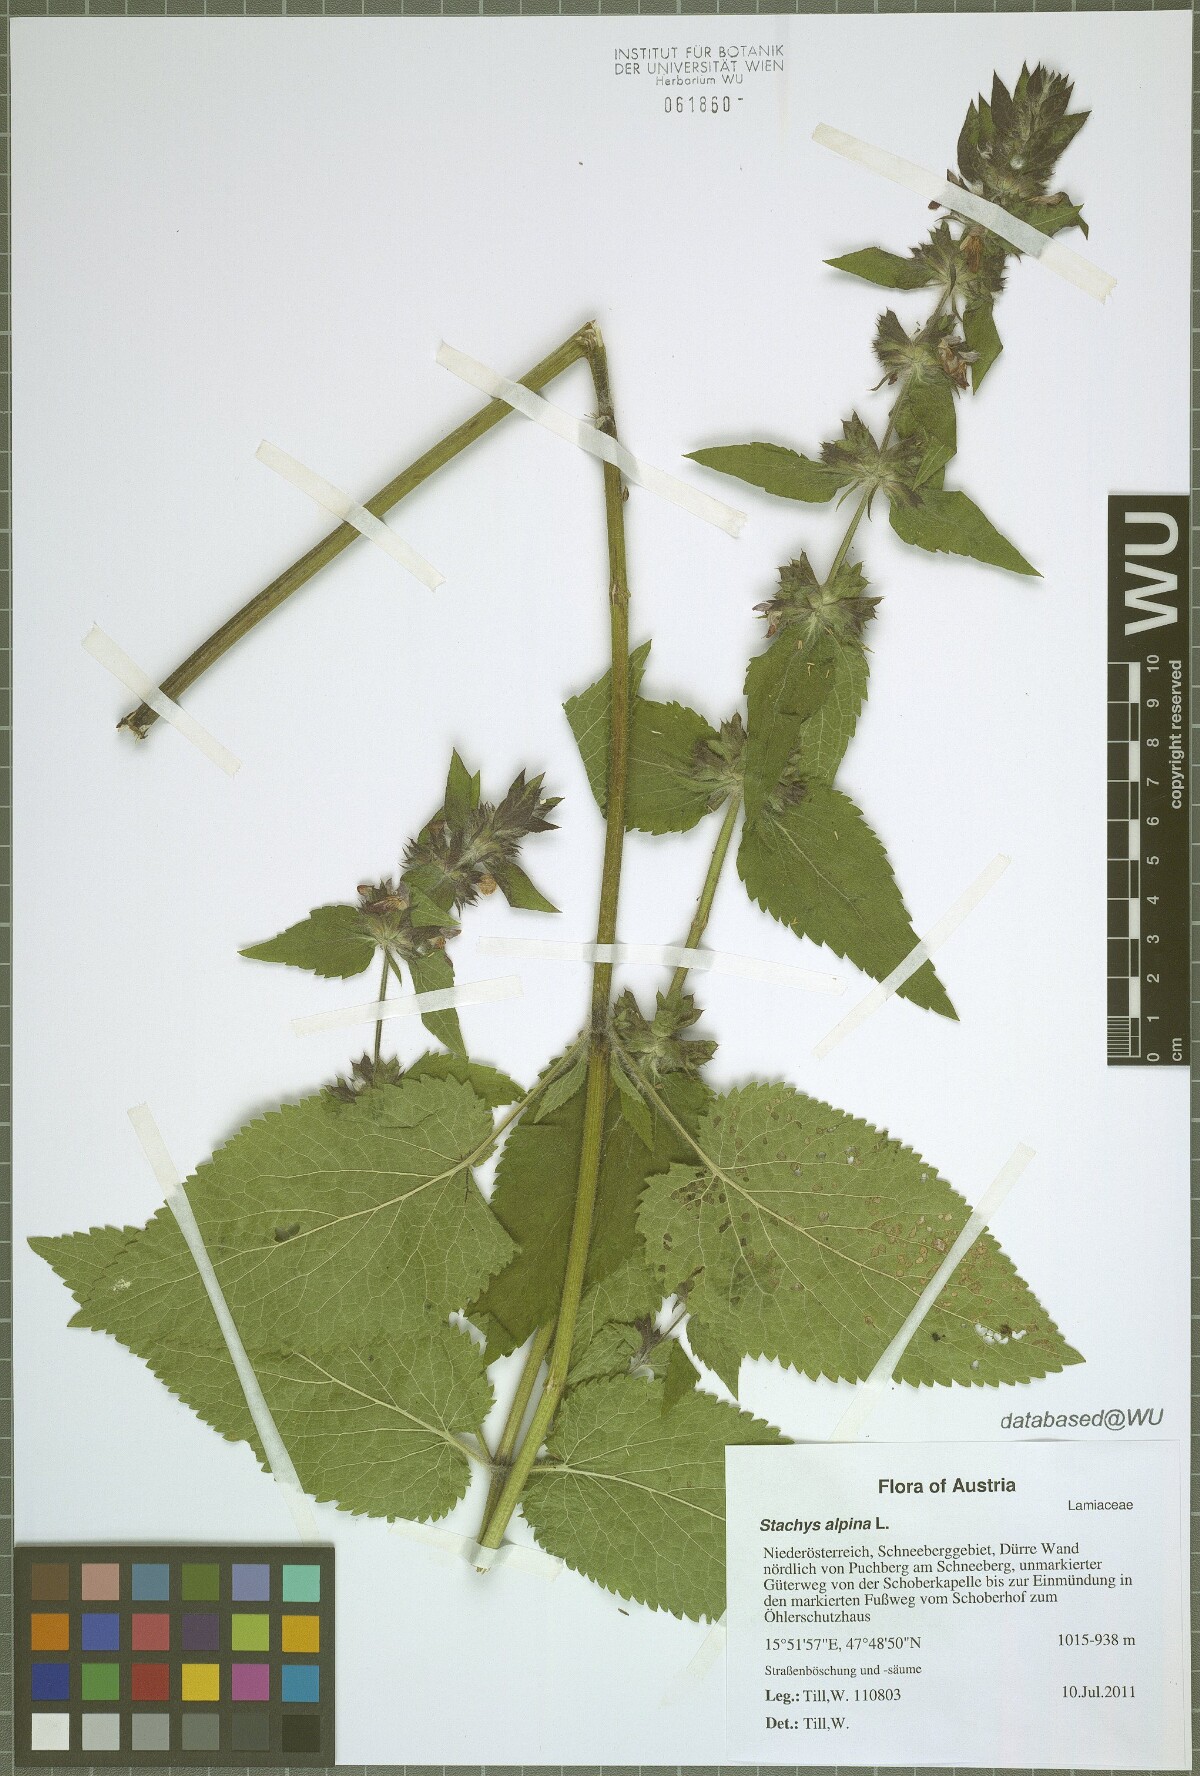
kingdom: Plantae
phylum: Tracheophyta
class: Magnoliopsida
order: Lamiales
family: Lamiaceae
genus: Stachys
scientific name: Stachys alpina
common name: Limestone woundwort
